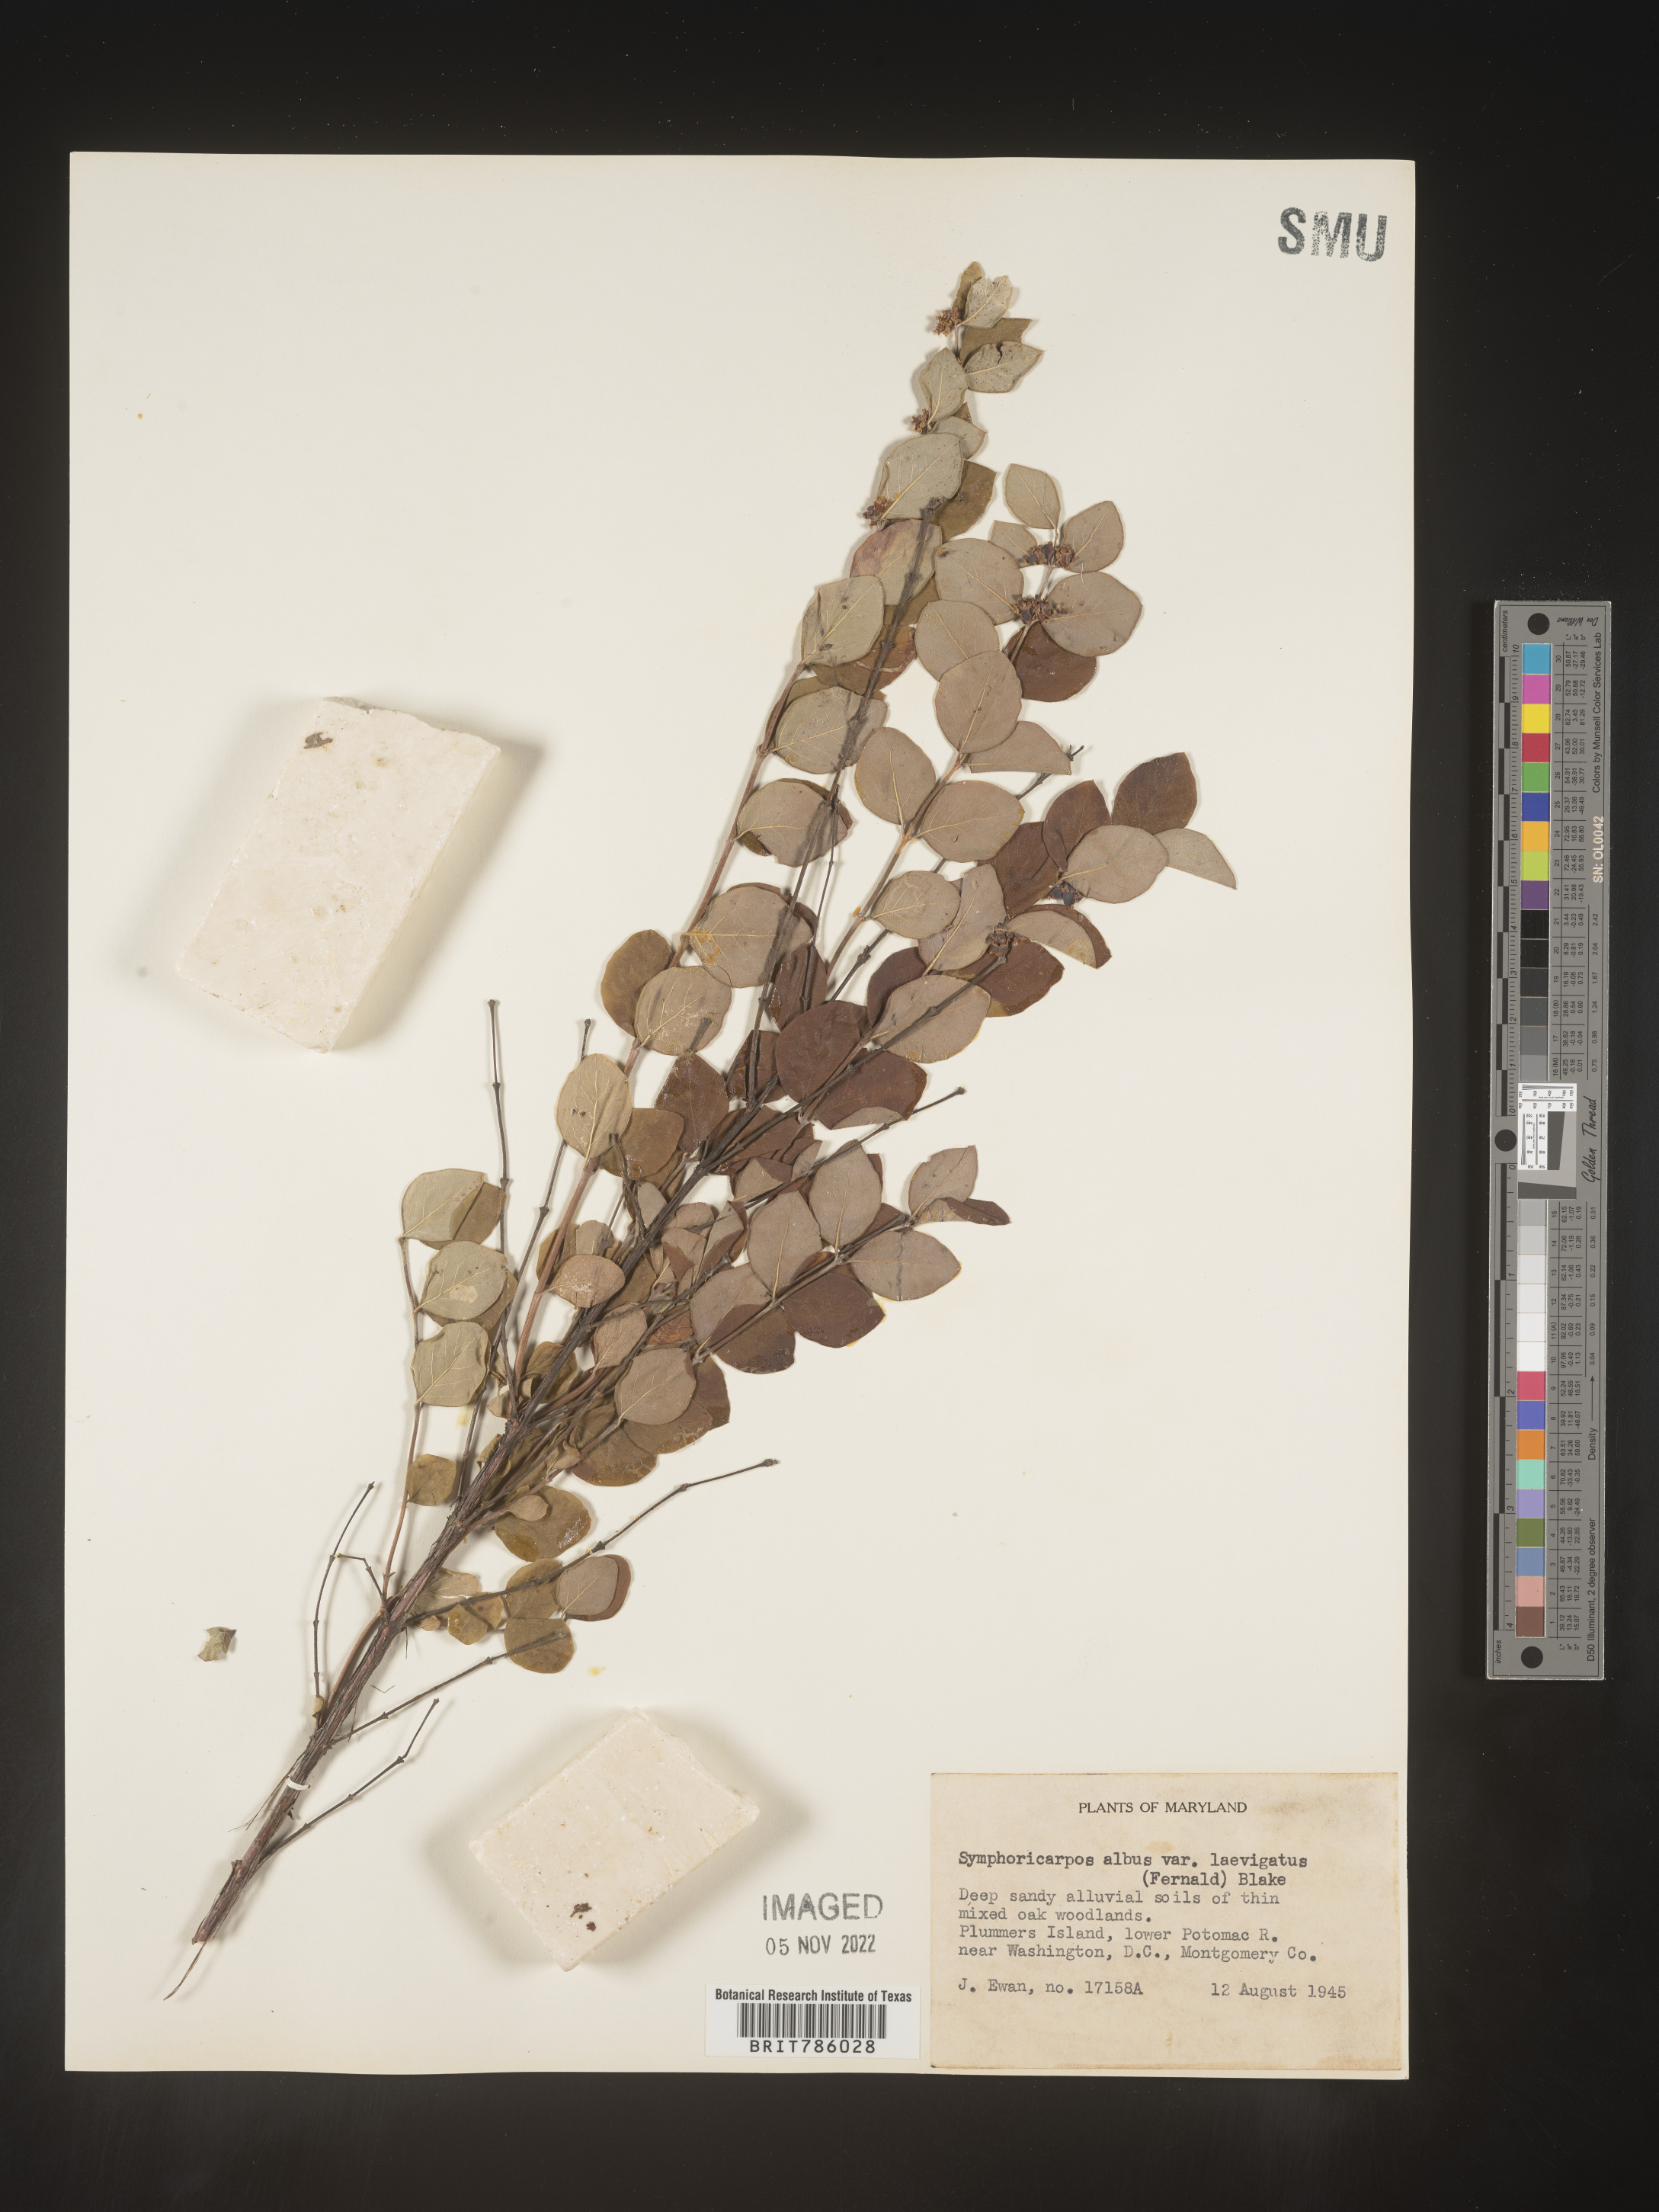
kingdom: Plantae
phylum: Tracheophyta
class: Magnoliopsida
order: Dipsacales
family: Caprifoliaceae
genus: Symphoricarpos
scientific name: Symphoricarpos albus
